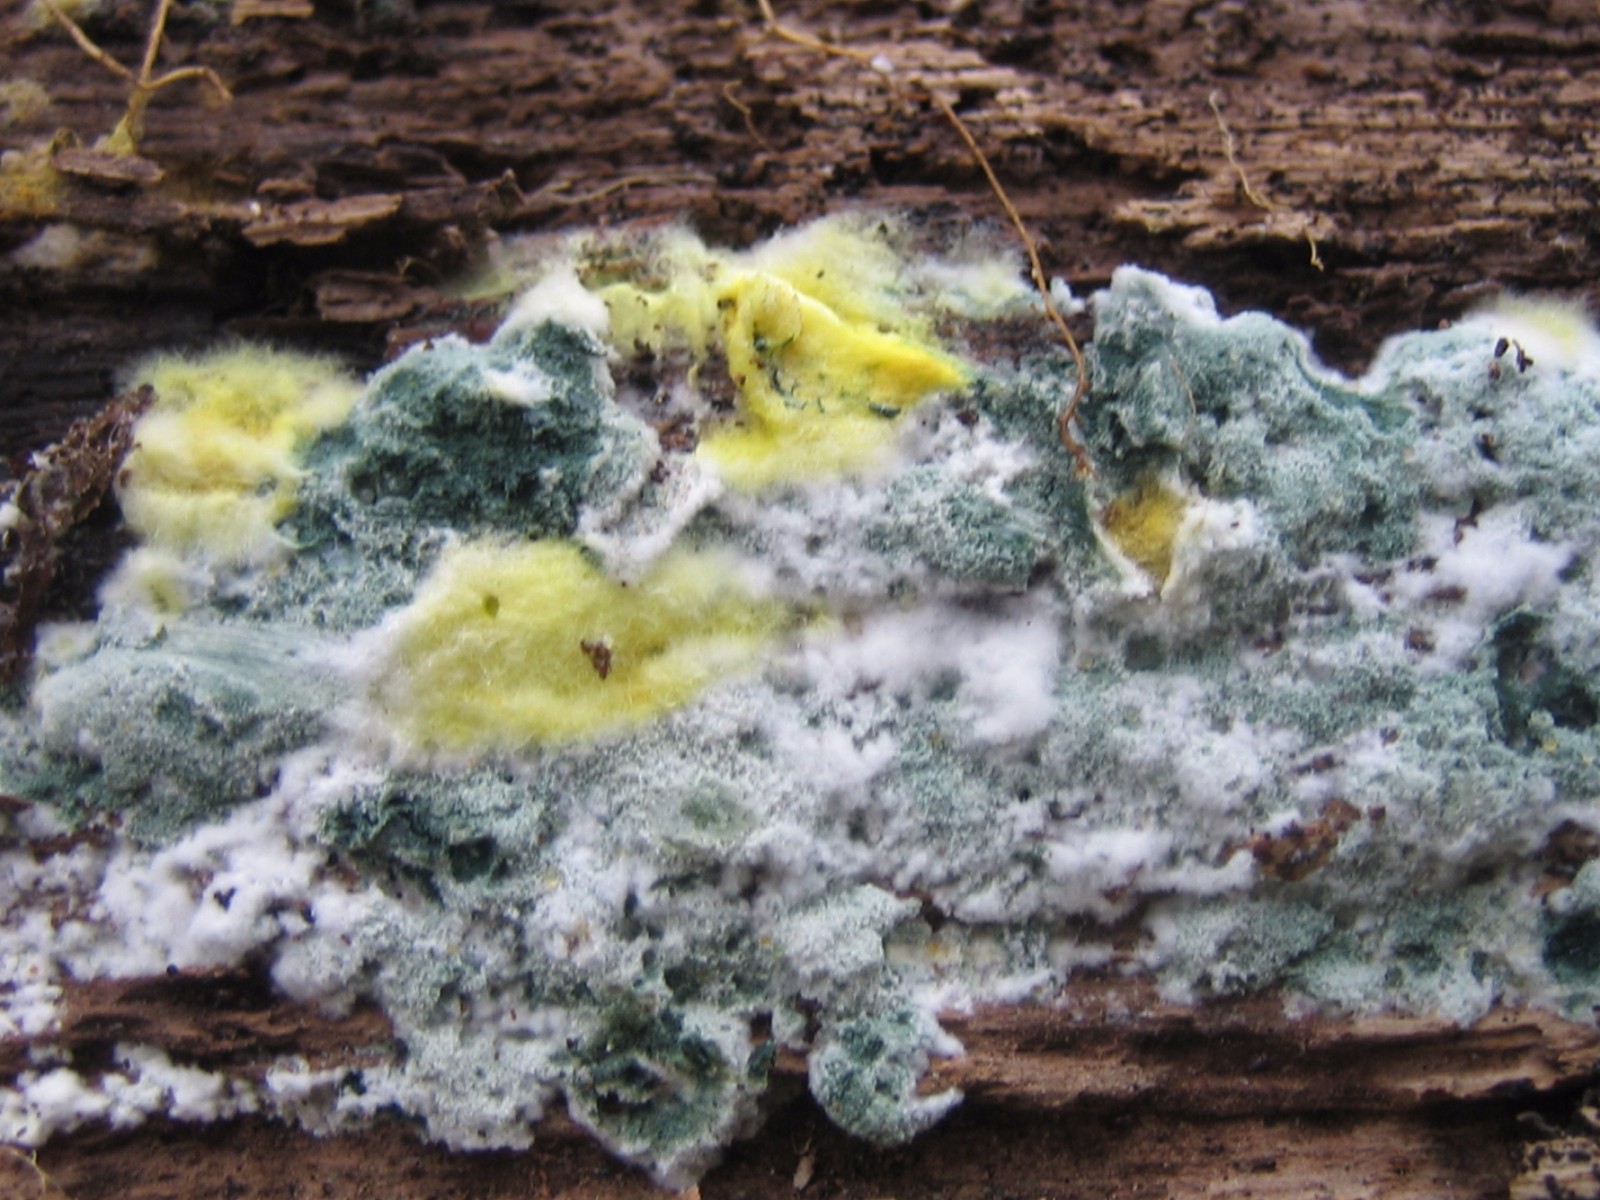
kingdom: Fungi
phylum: Ascomycota
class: Sordariomycetes
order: Hypocreales
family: Hypocreaceae
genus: Trichoderma
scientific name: Trichoderma
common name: kødkerne
